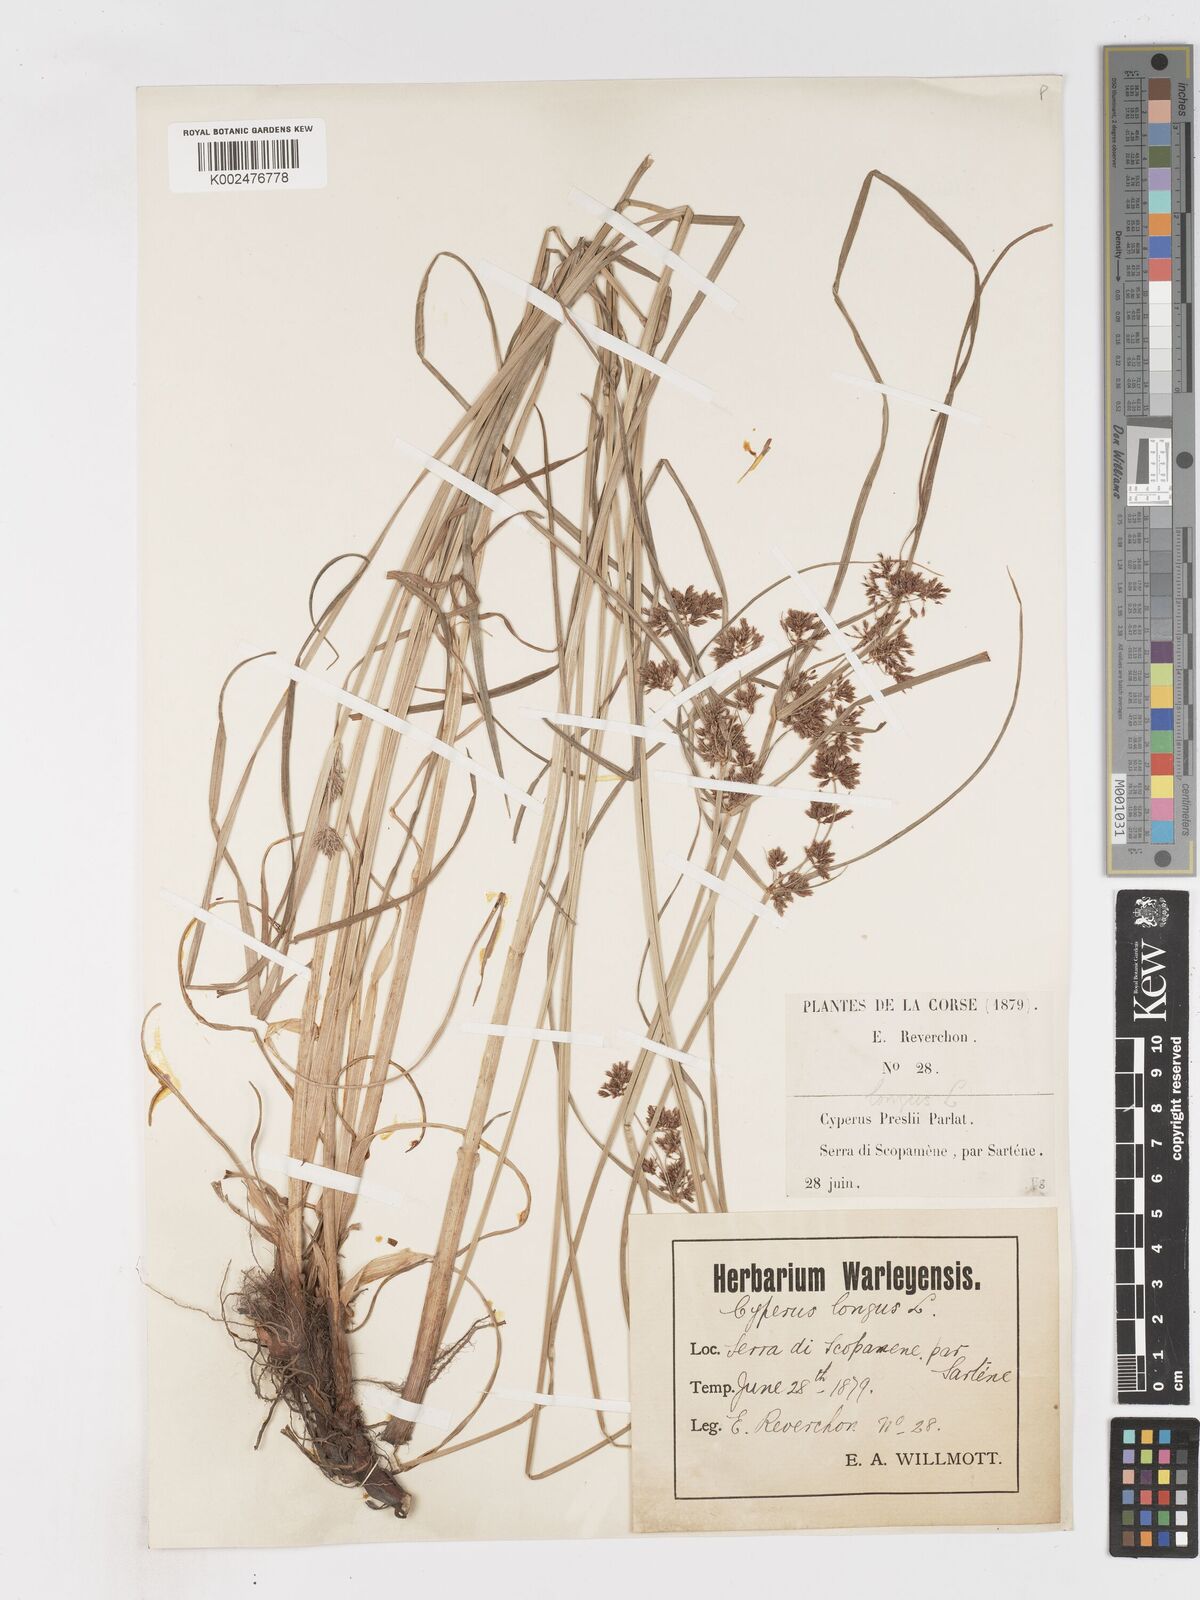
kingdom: Plantae
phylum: Tracheophyta
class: Liliopsida
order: Poales
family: Cyperaceae
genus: Cyperus
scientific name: Cyperus longus
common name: Galingale
